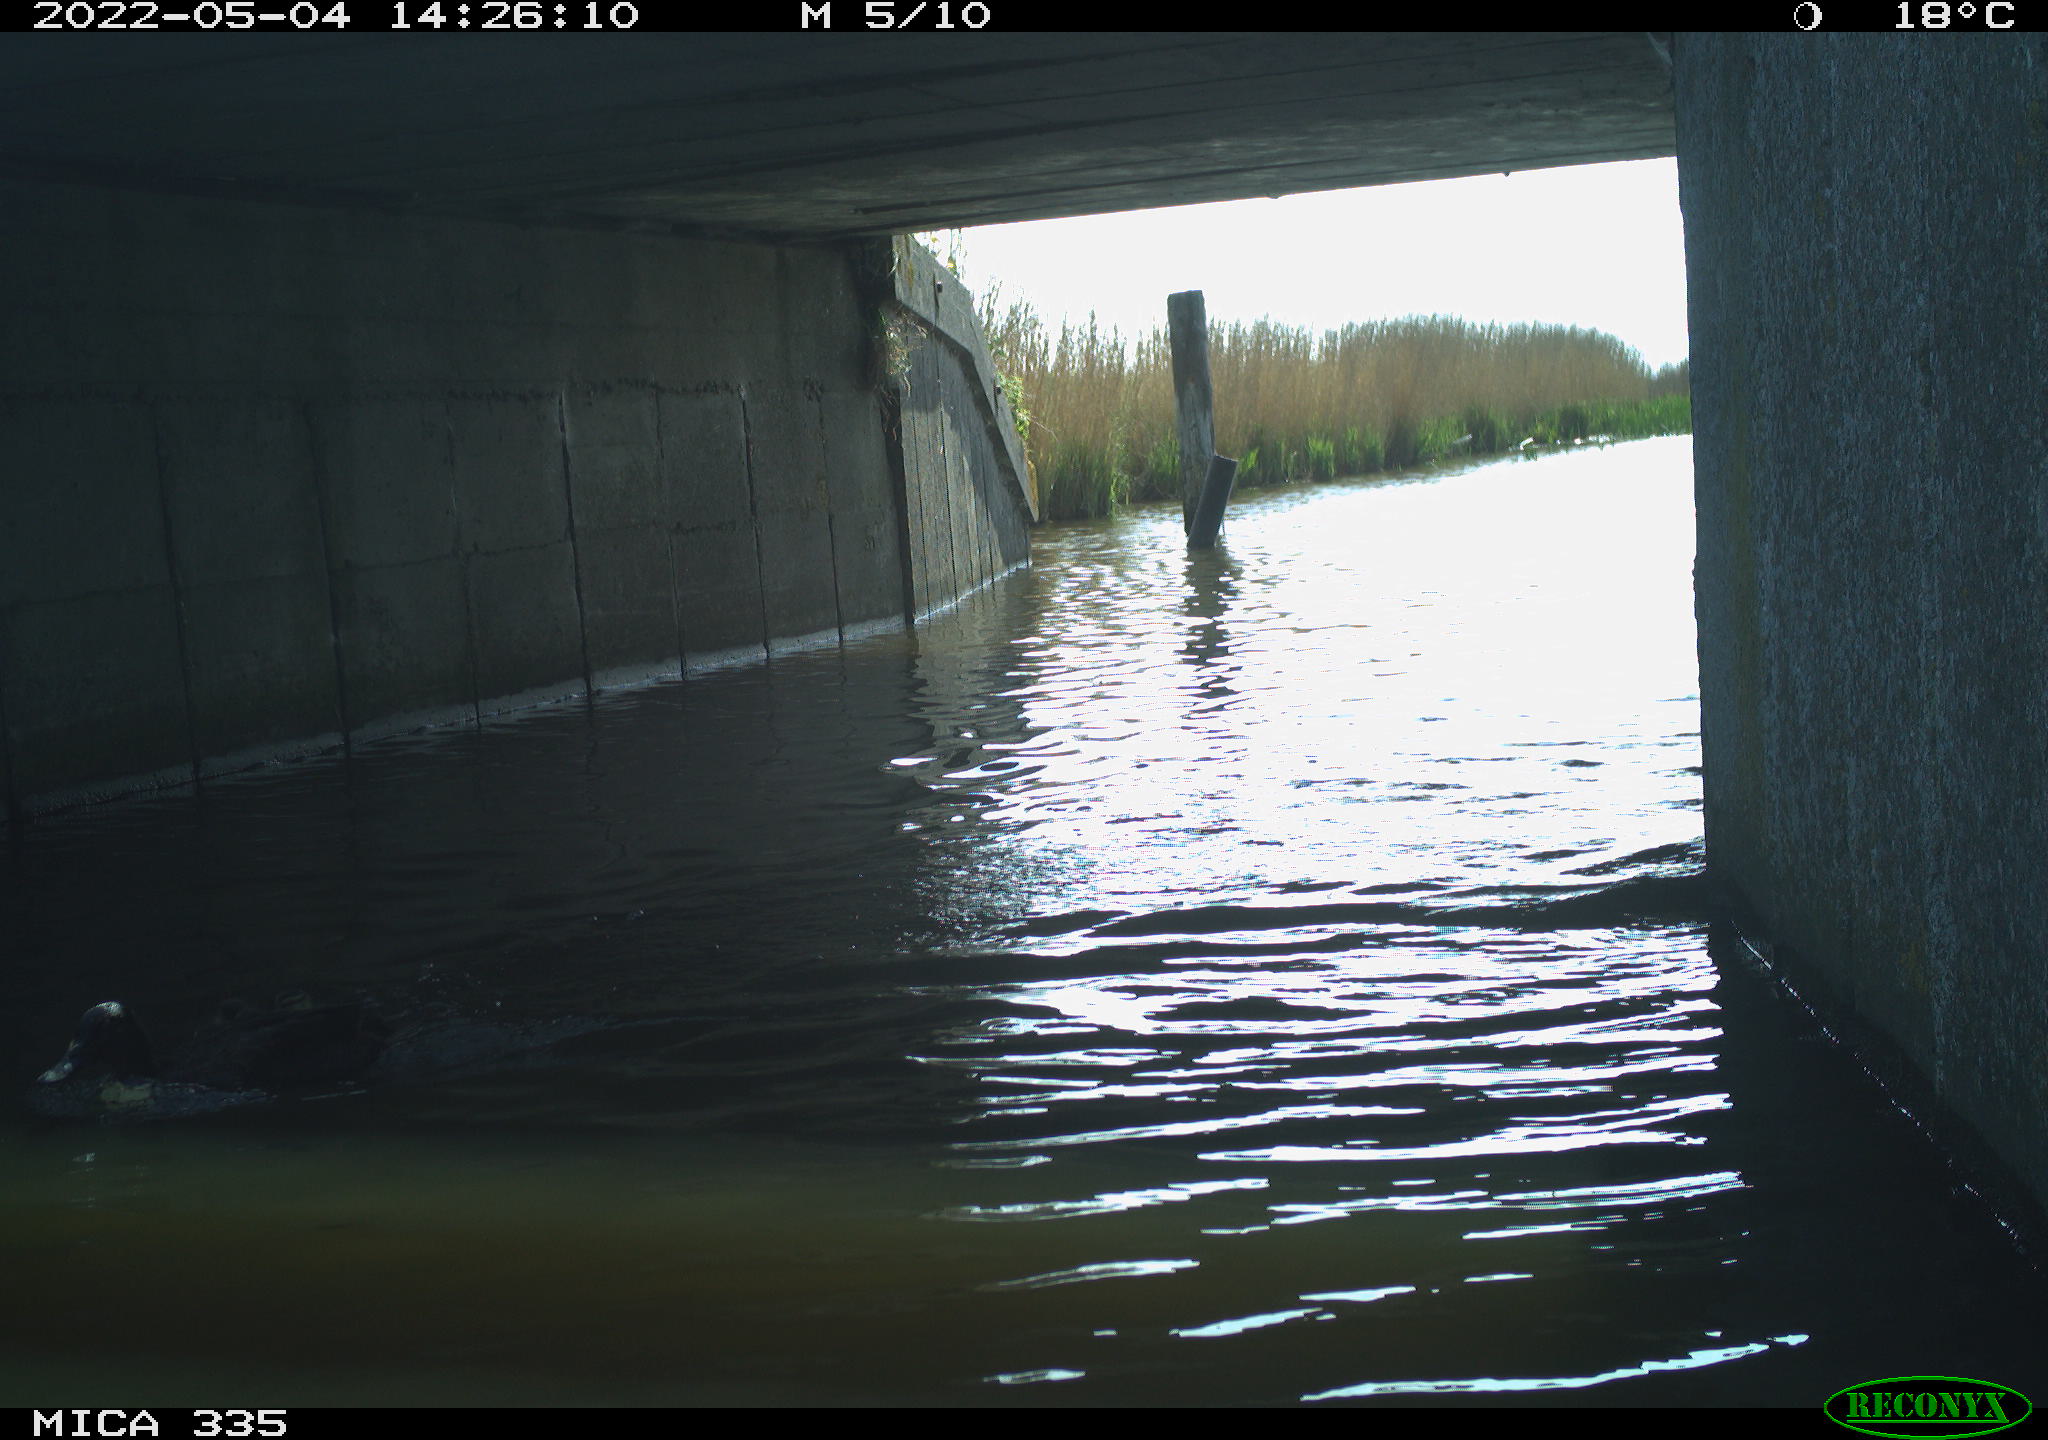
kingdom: Animalia
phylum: Chordata
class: Aves
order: Anseriformes
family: Anatidae
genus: Anas
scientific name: Anas platyrhynchos
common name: Mallard
